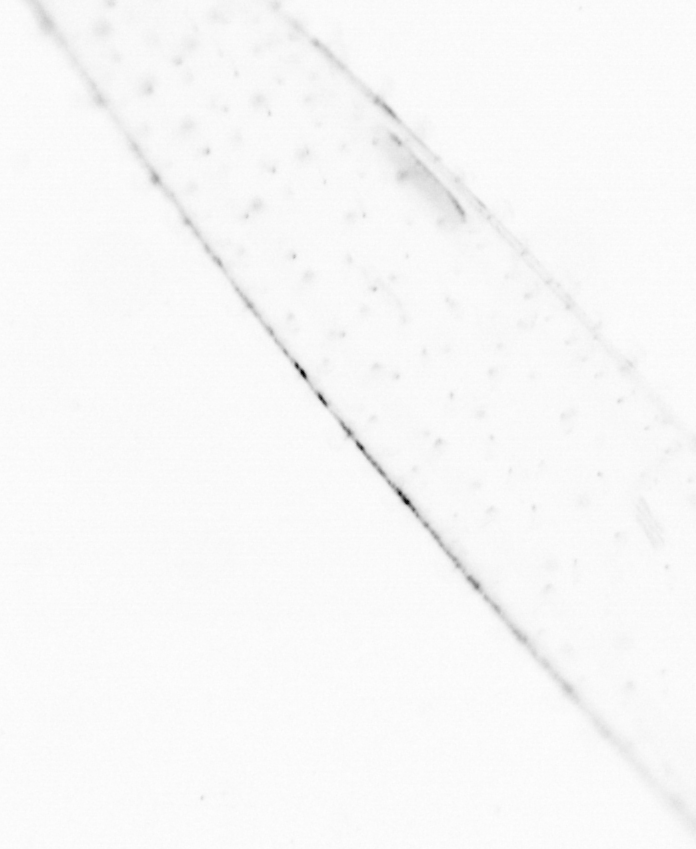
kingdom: Chromista
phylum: Ochrophyta
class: Bacillariophyceae
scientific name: Bacillariophyceae
